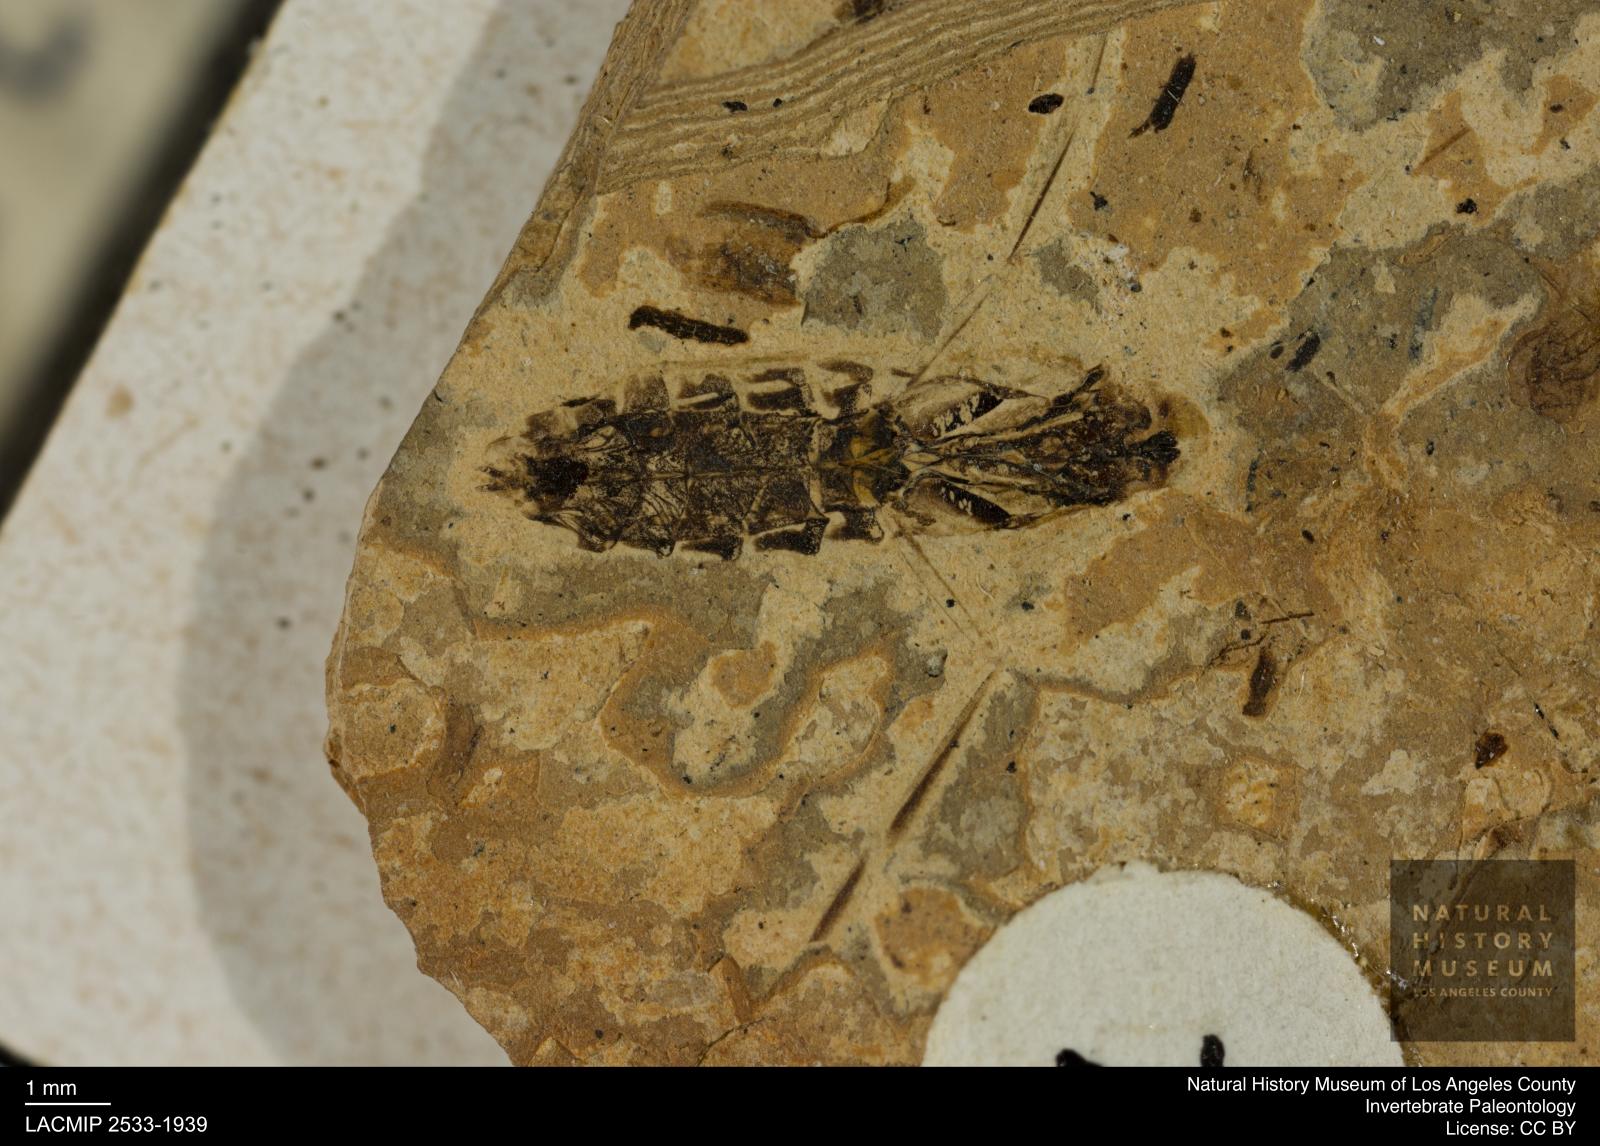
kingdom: Animalia
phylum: Arthropoda
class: Insecta
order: Hemiptera
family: Notonectidae
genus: Anisops
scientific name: Anisops Notonecta deichmuelleri
